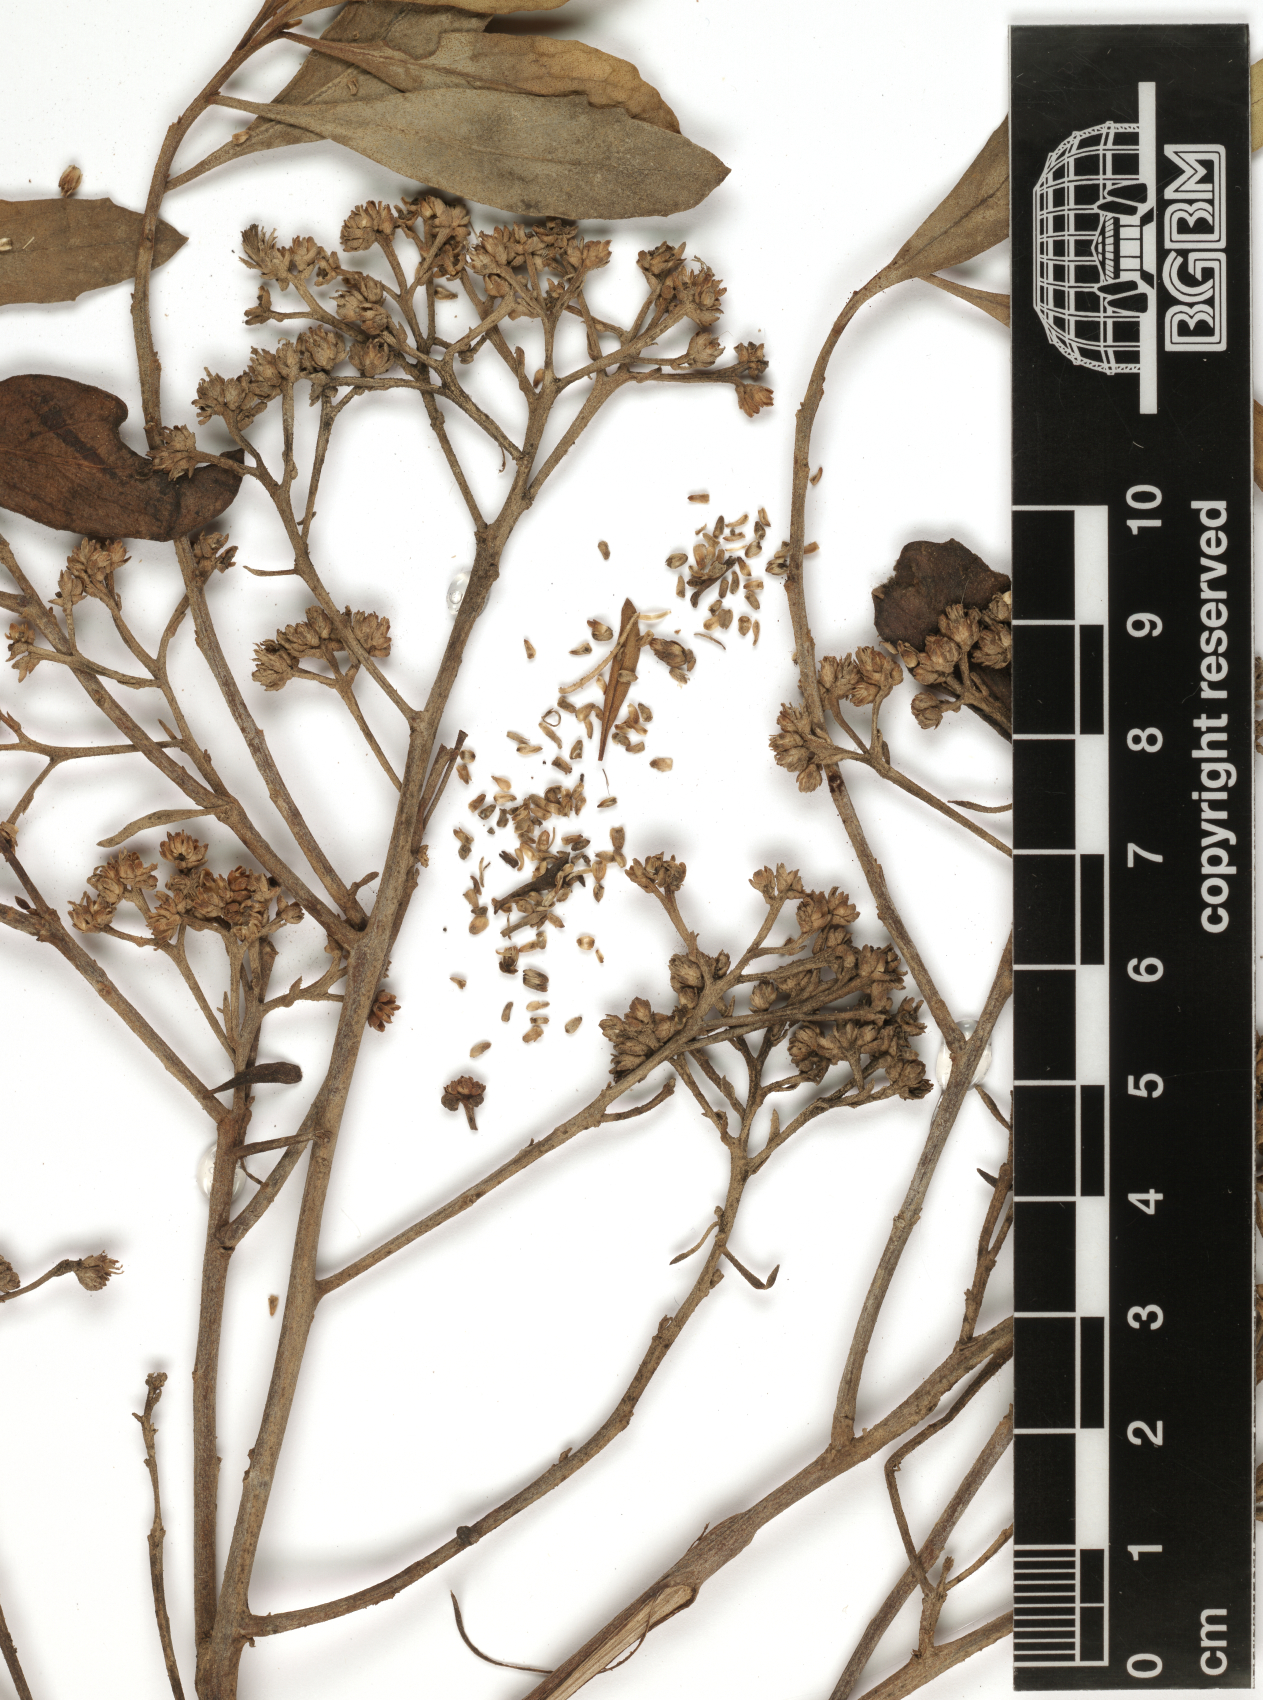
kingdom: Plantae
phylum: Tracheophyta
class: Magnoliopsida
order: Asterales
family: Asteraceae
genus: Pluchea
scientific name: Pluchea indica
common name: Indian fleabane
